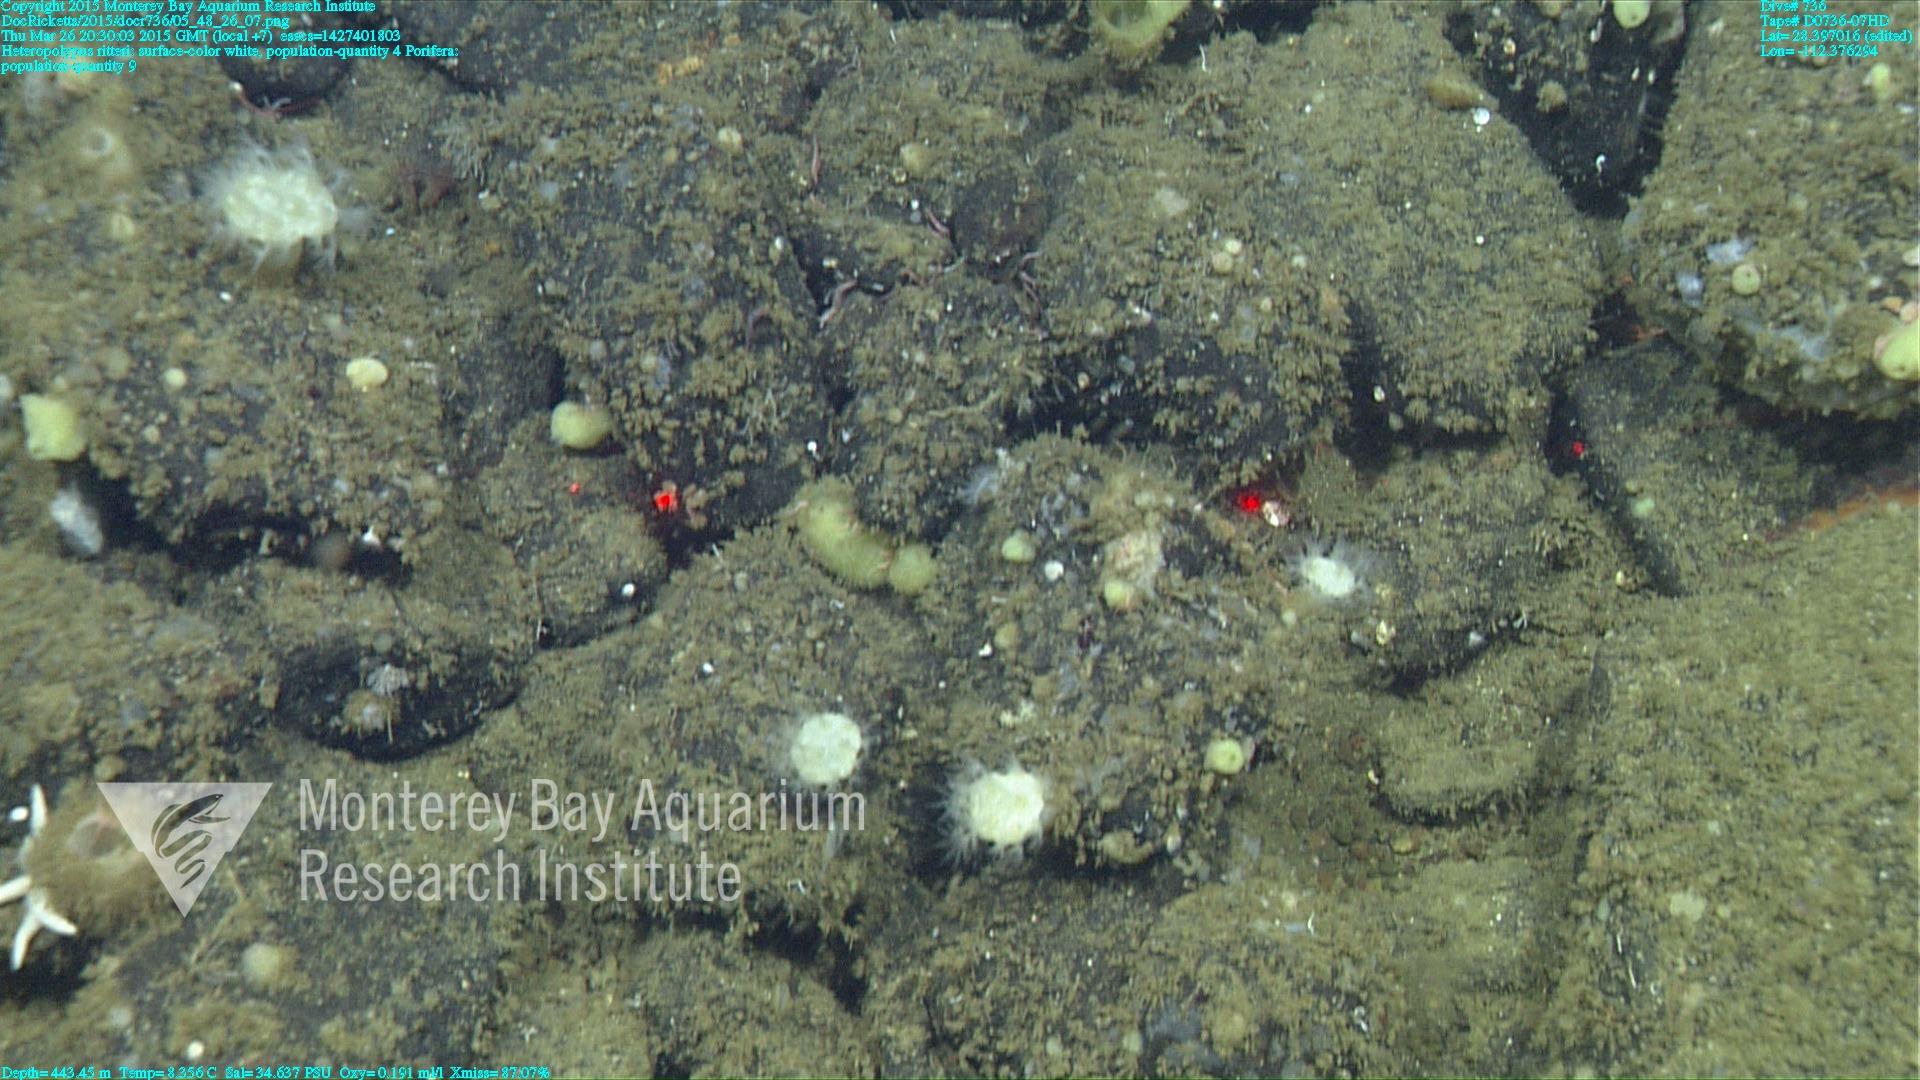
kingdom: Animalia
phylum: Cnidaria
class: Anthozoa
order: Scleralcyonacea
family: Coralliidae
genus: Heteropolypus
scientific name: Heteropolypus ritteri
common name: Ritter's soft coral
